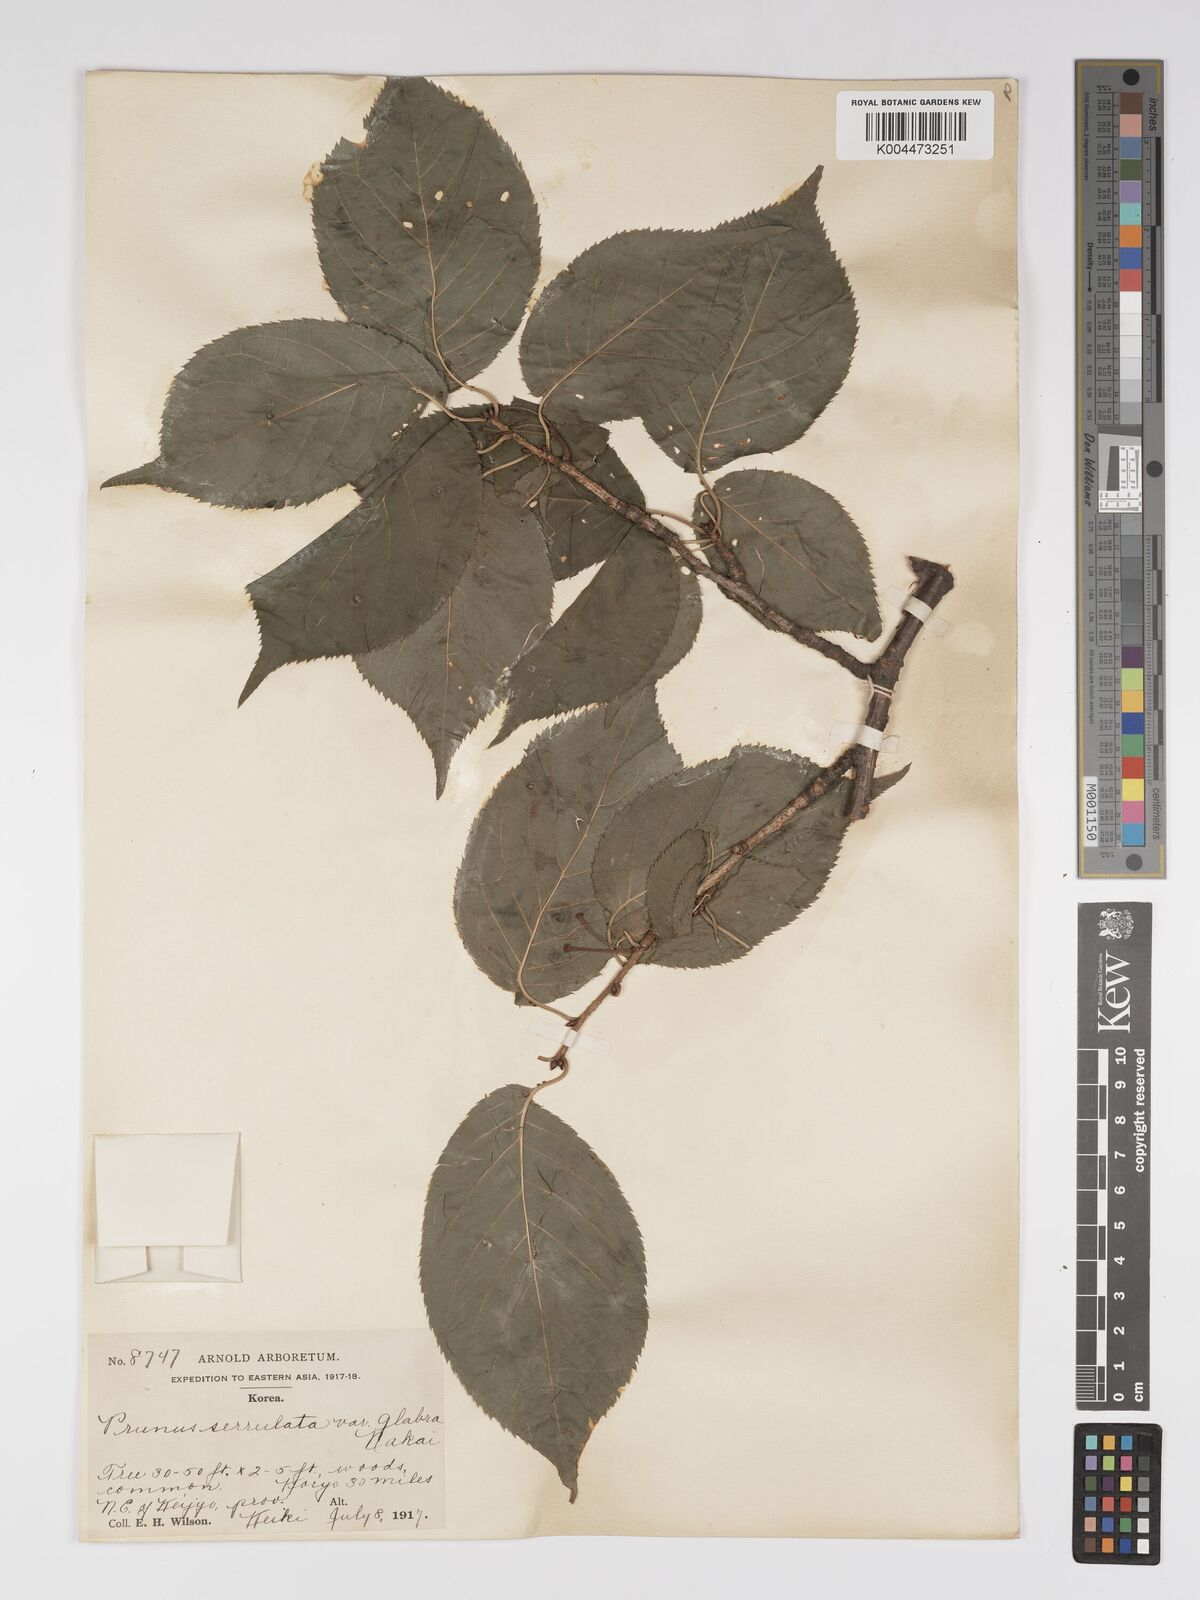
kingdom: Plantae
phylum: Tracheophyta
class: Magnoliopsida
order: Rosales
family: Rosaceae
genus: Prunus
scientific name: Prunus serrulata
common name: Japanese cherry
